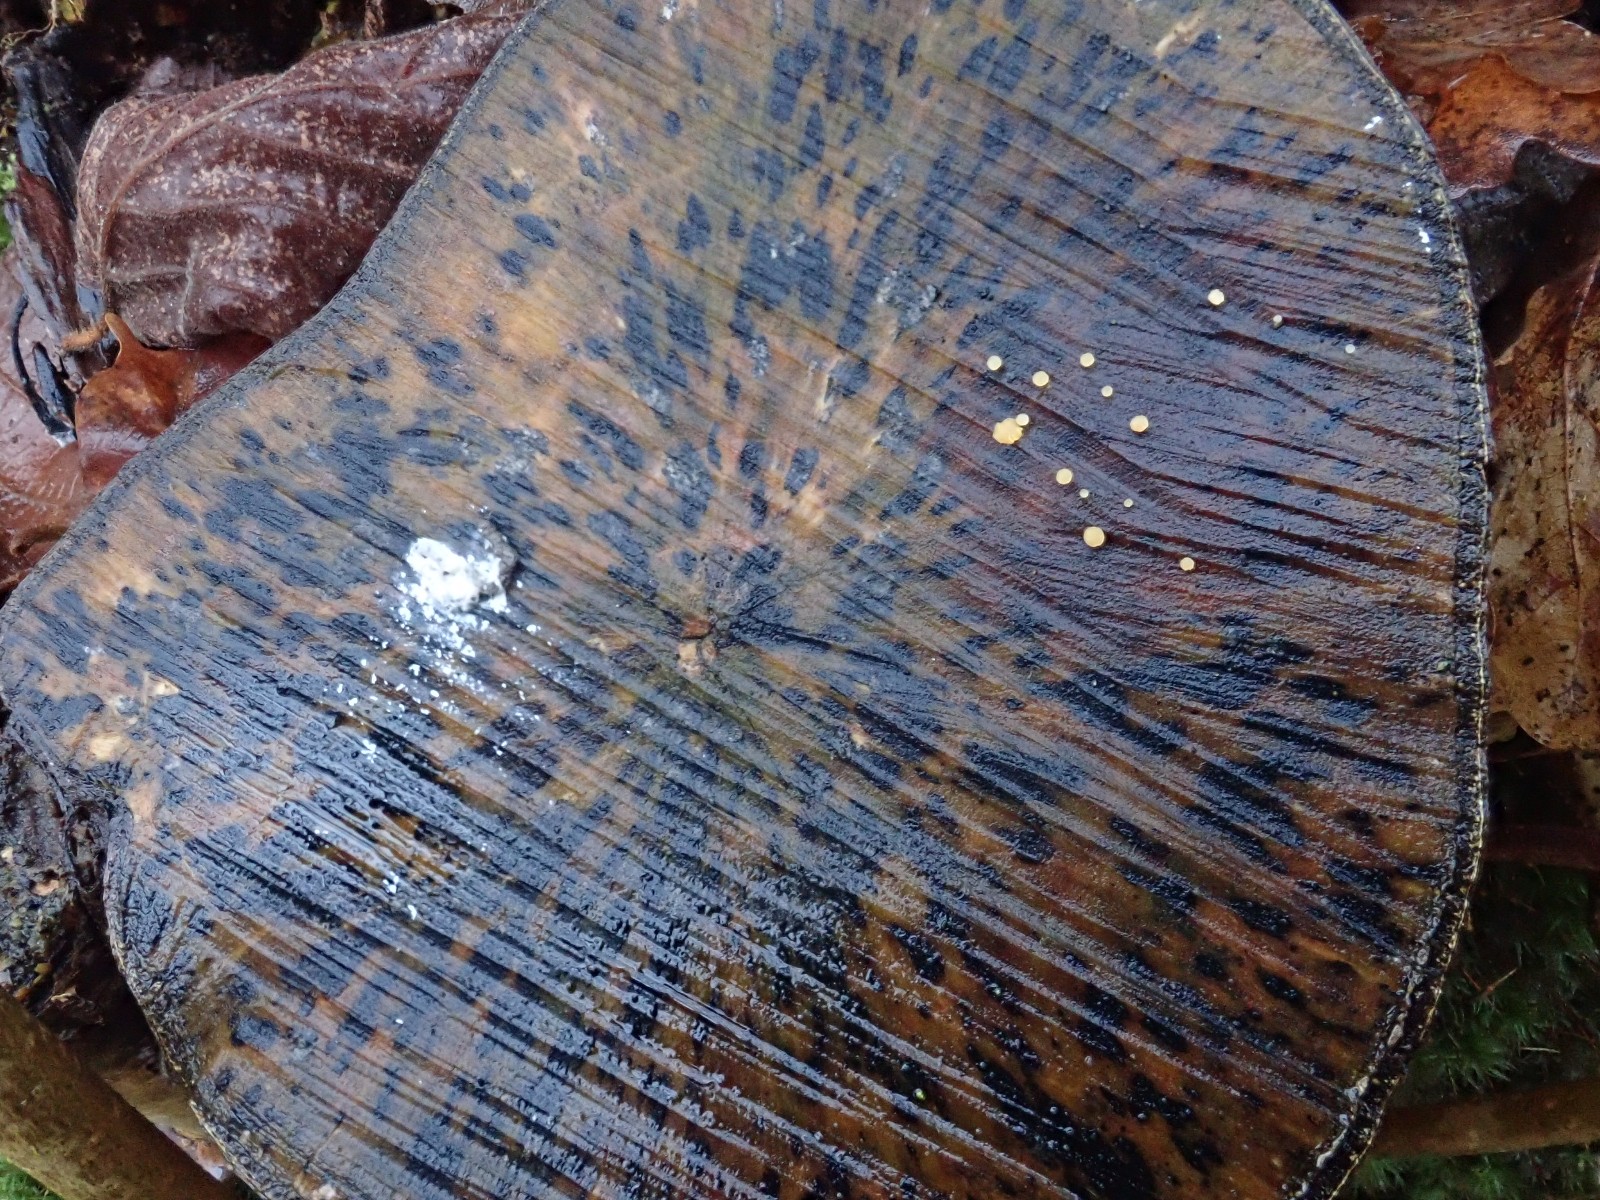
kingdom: Fungi
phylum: Ascomycota
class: Leotiomycetes
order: Helotiales
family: Helotiaceae
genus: Bispora
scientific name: Bispora pallescens
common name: måtte-snitskive
